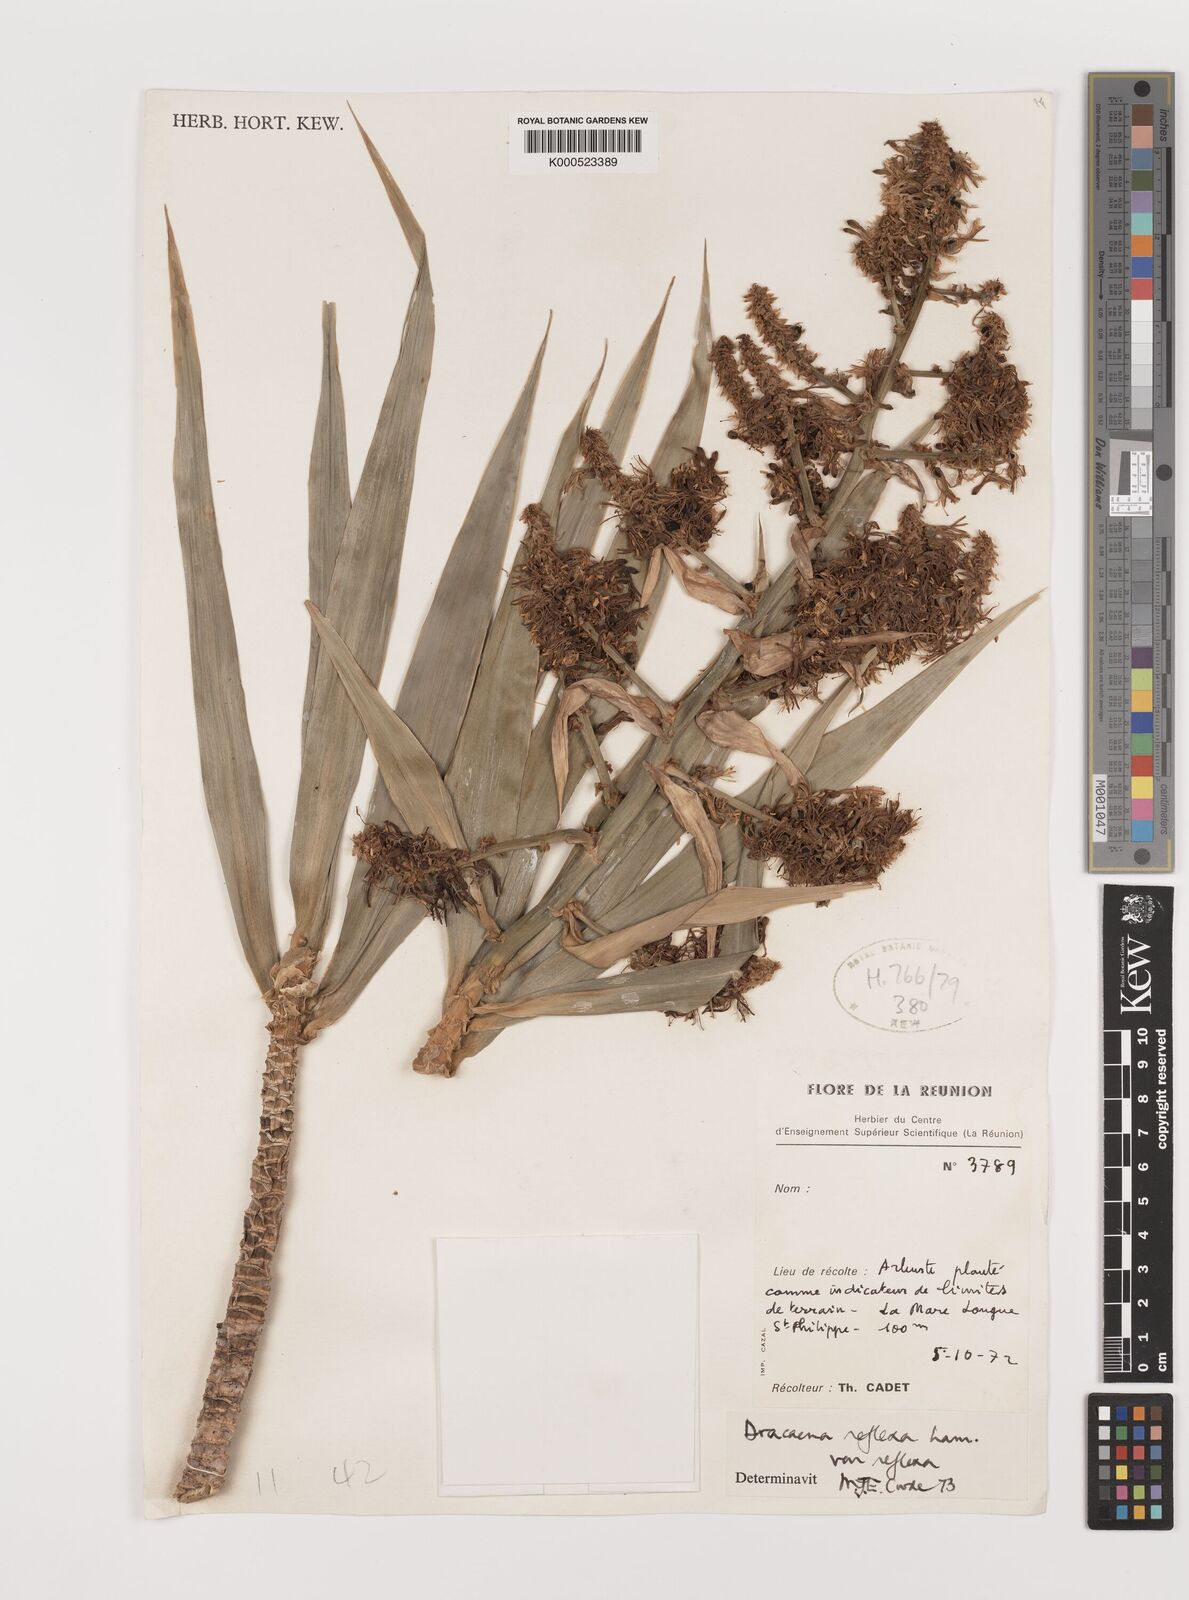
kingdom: Plantae
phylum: Tracheophyta
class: Liliopsida
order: Asparagales
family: Asparagaceae
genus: Dracaena
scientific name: Dracaena reflexa
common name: Song-of-india
